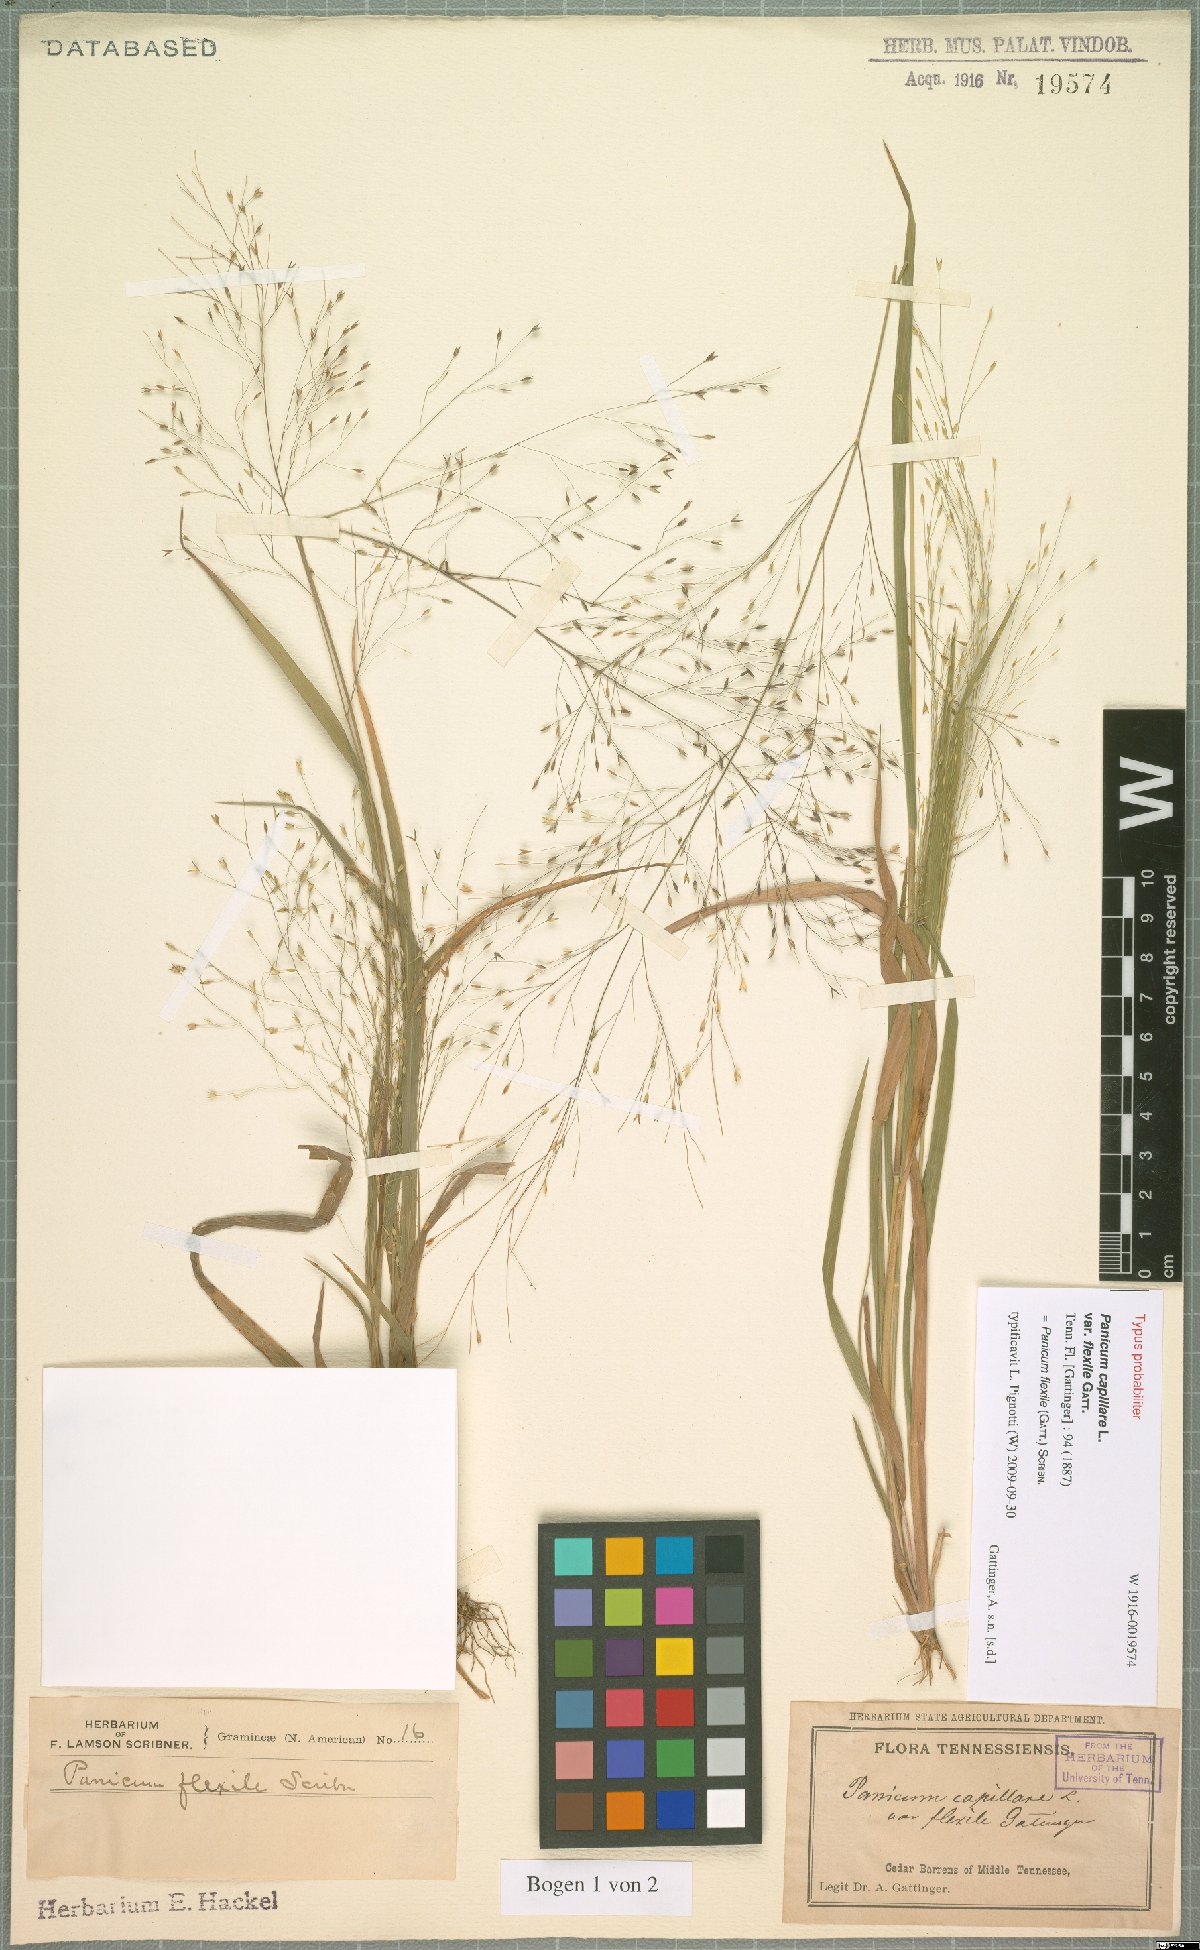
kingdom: Plantae
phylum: Tracheophyta
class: Liliopsida
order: Poales
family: Poaceae
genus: Panicum
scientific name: Panicum flexile
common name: Wiry panicgrass
